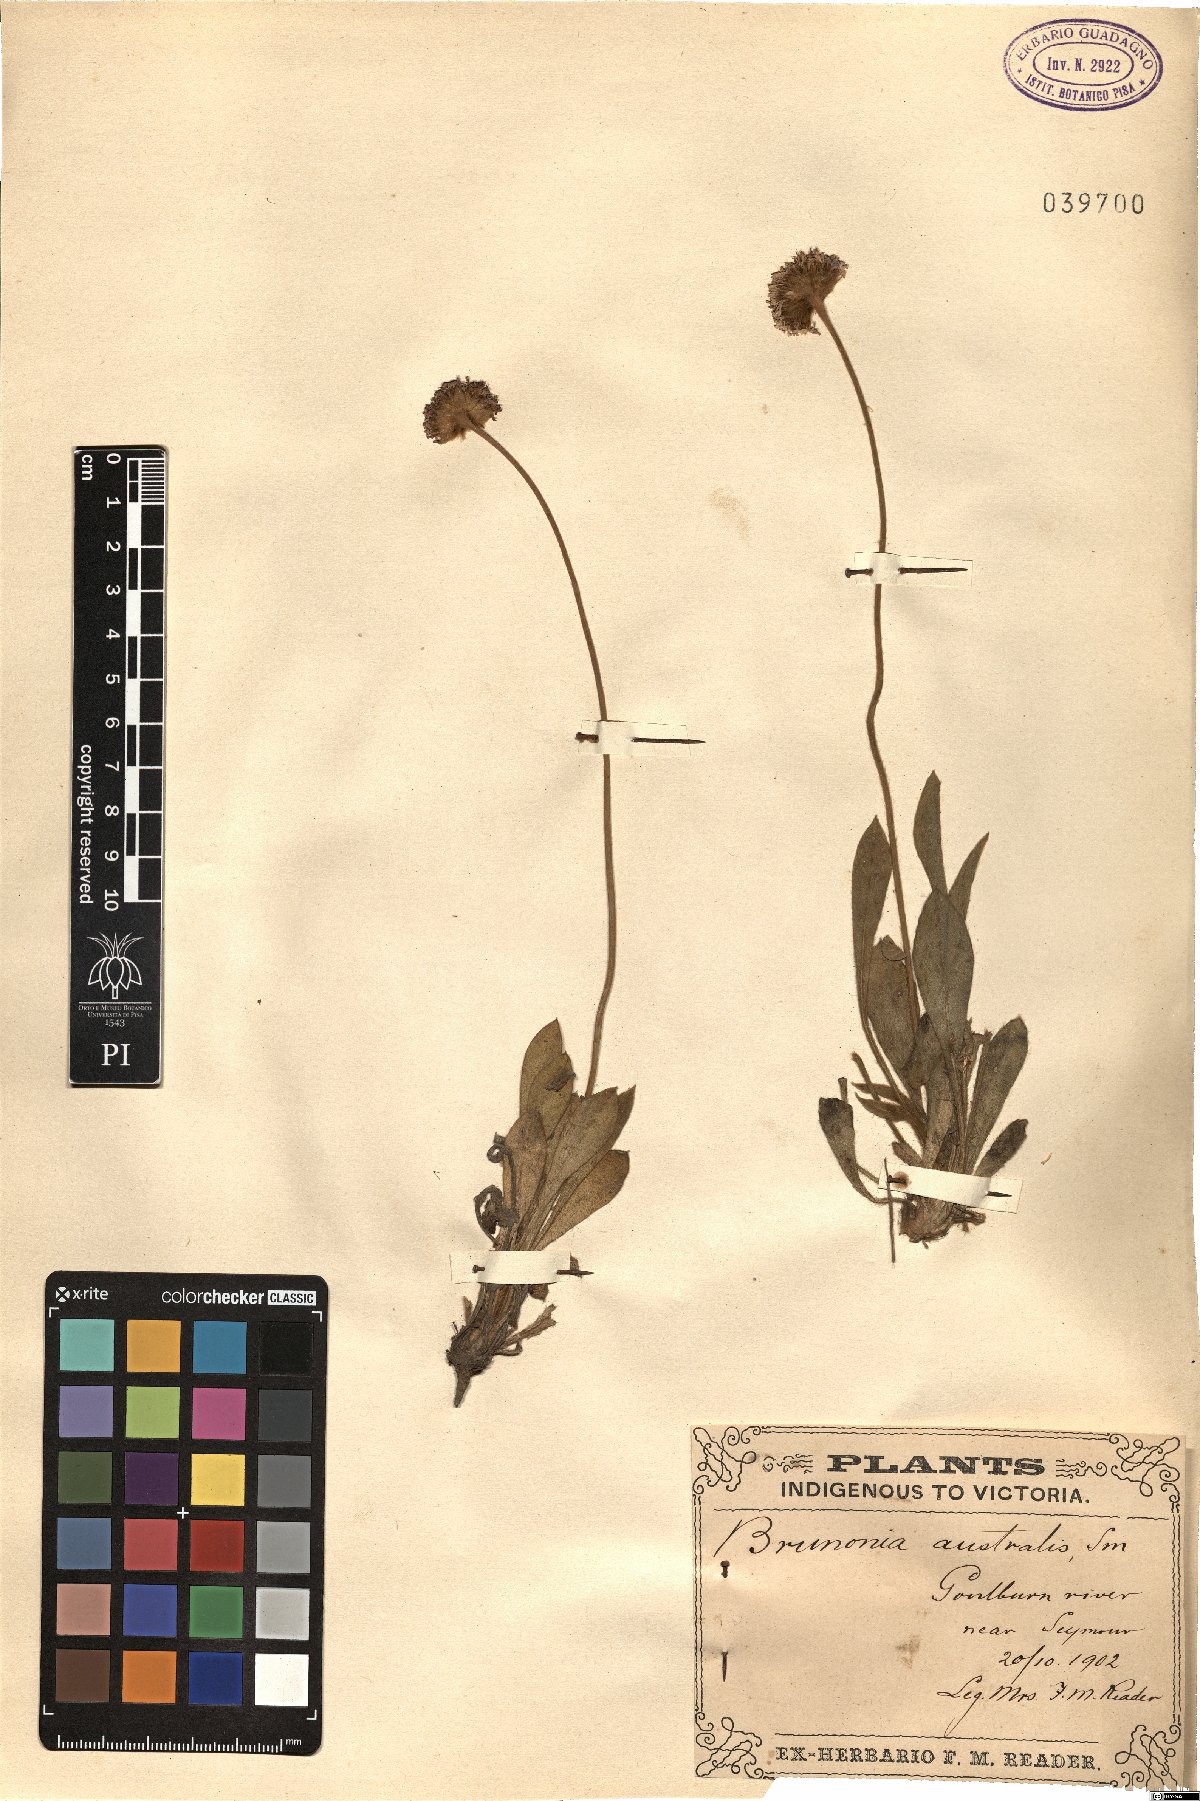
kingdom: Plantae
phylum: Tracheophyta
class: Magnoliopsida
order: Asterales
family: Goodeniaceae
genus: Brunonia
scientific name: Brunonia australis
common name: Blue pincushion
